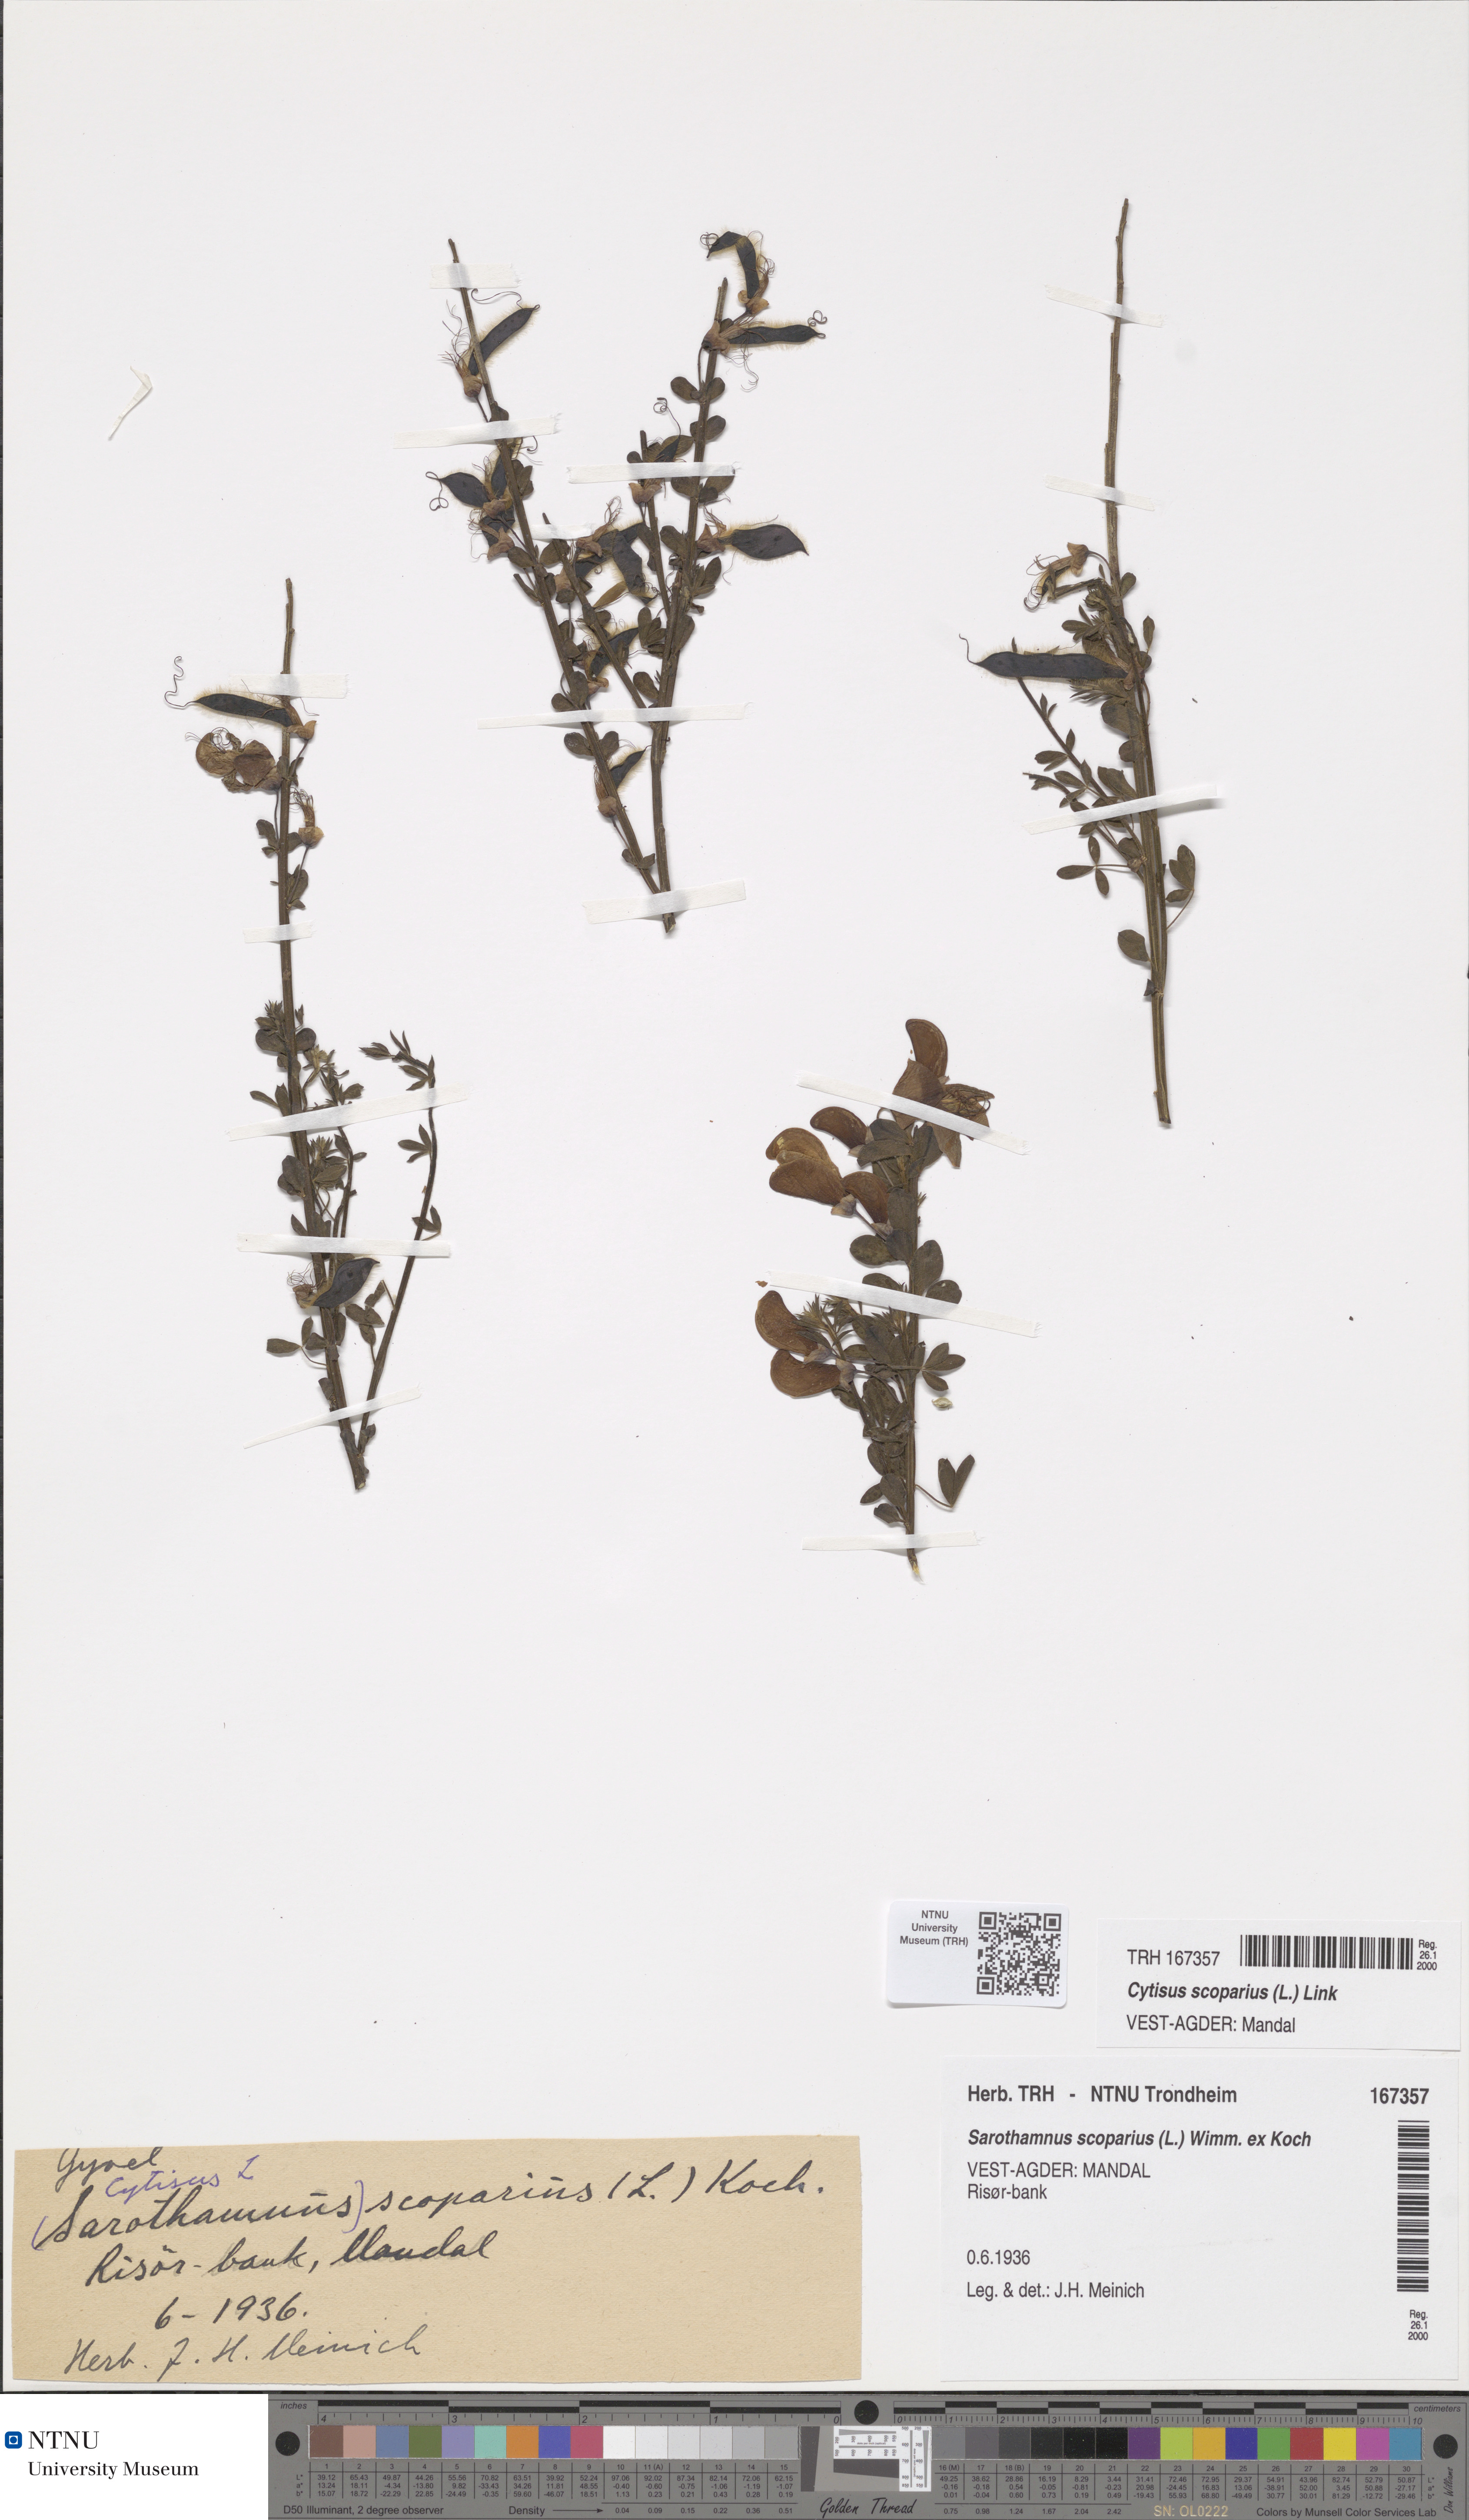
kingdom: Plantae
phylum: Tracheophyta
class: Magnoliopsida
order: Fabales
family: Fabaceae
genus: Cytisus
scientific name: Cytisus scoparius
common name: Scotch broom
